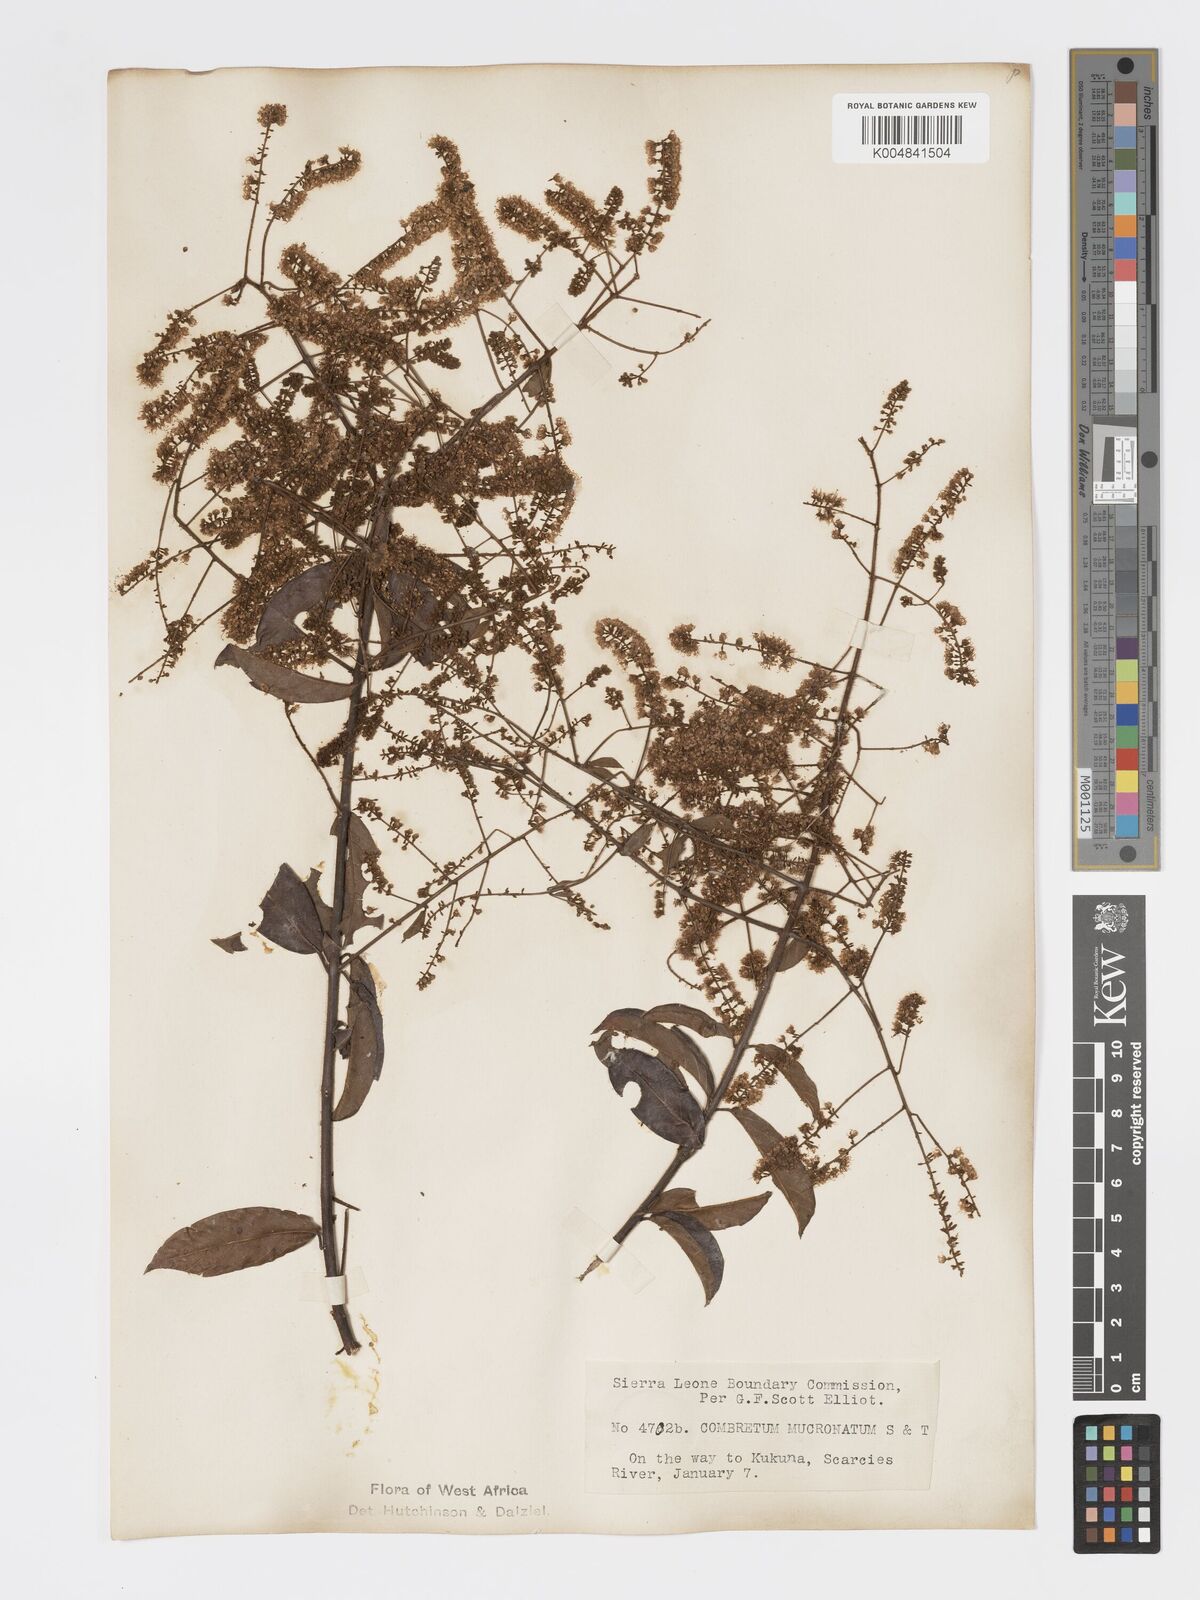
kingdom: Plantae
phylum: Tracheophyta
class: Magnoliopsida
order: Myrtales
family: Combretaceae
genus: Combretum
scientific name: Combretum mucronatum
